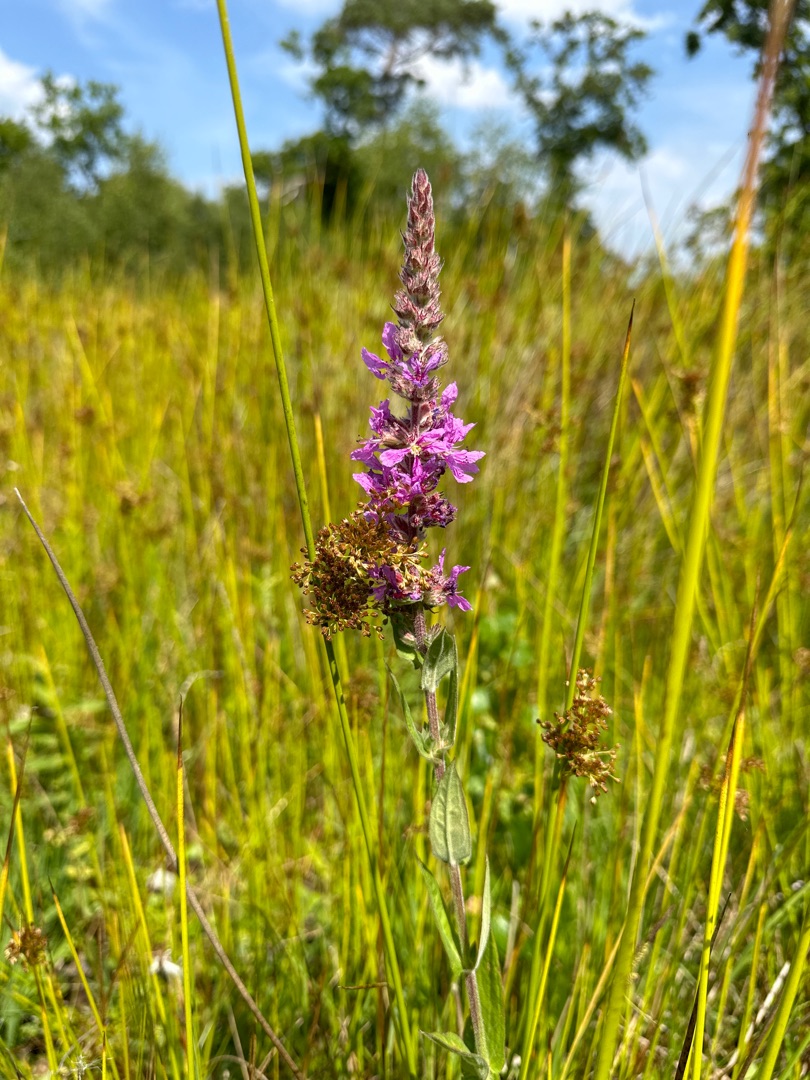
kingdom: Plantae
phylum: Tracheophyta
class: Magnoliopsida
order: Myrtales
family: Lythraceae
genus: Lythrum
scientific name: Lythrum salicaria
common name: Kattehale
